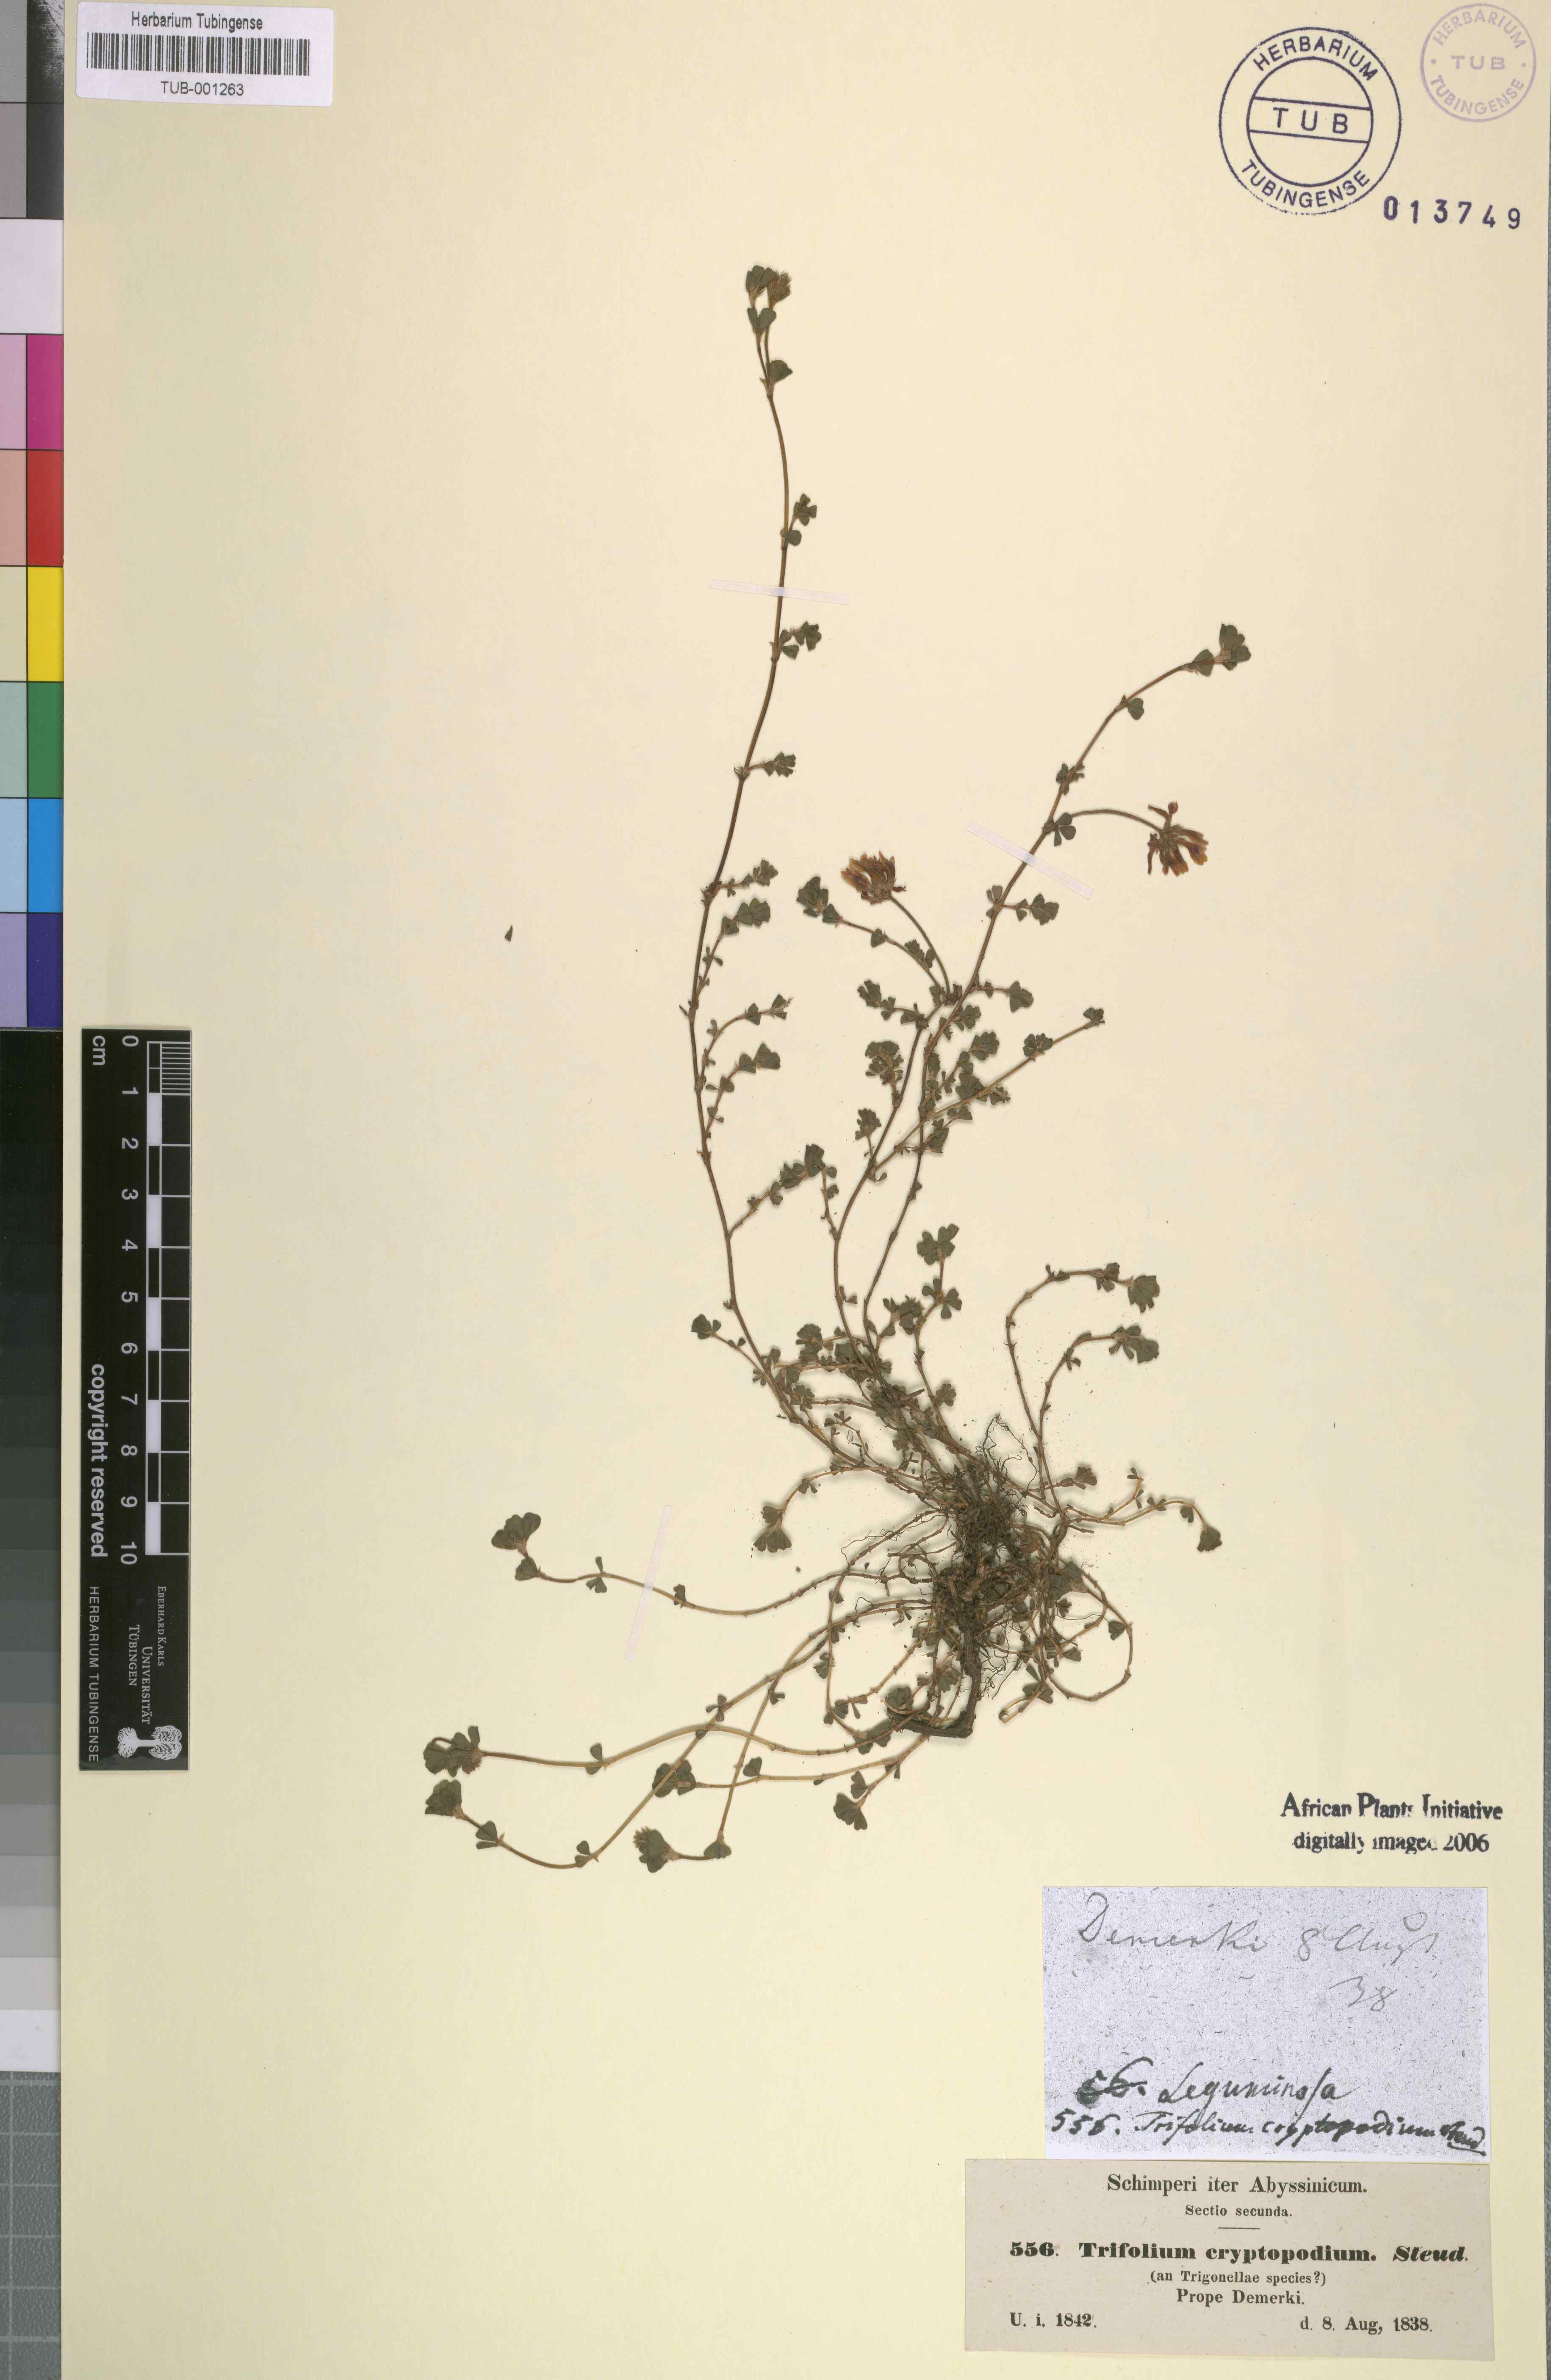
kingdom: Plantae
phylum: Tracheophyta
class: Magnoliopsida
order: Fabales
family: Fabaceae
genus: Trifolium
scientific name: Trifolium cryptopodium
